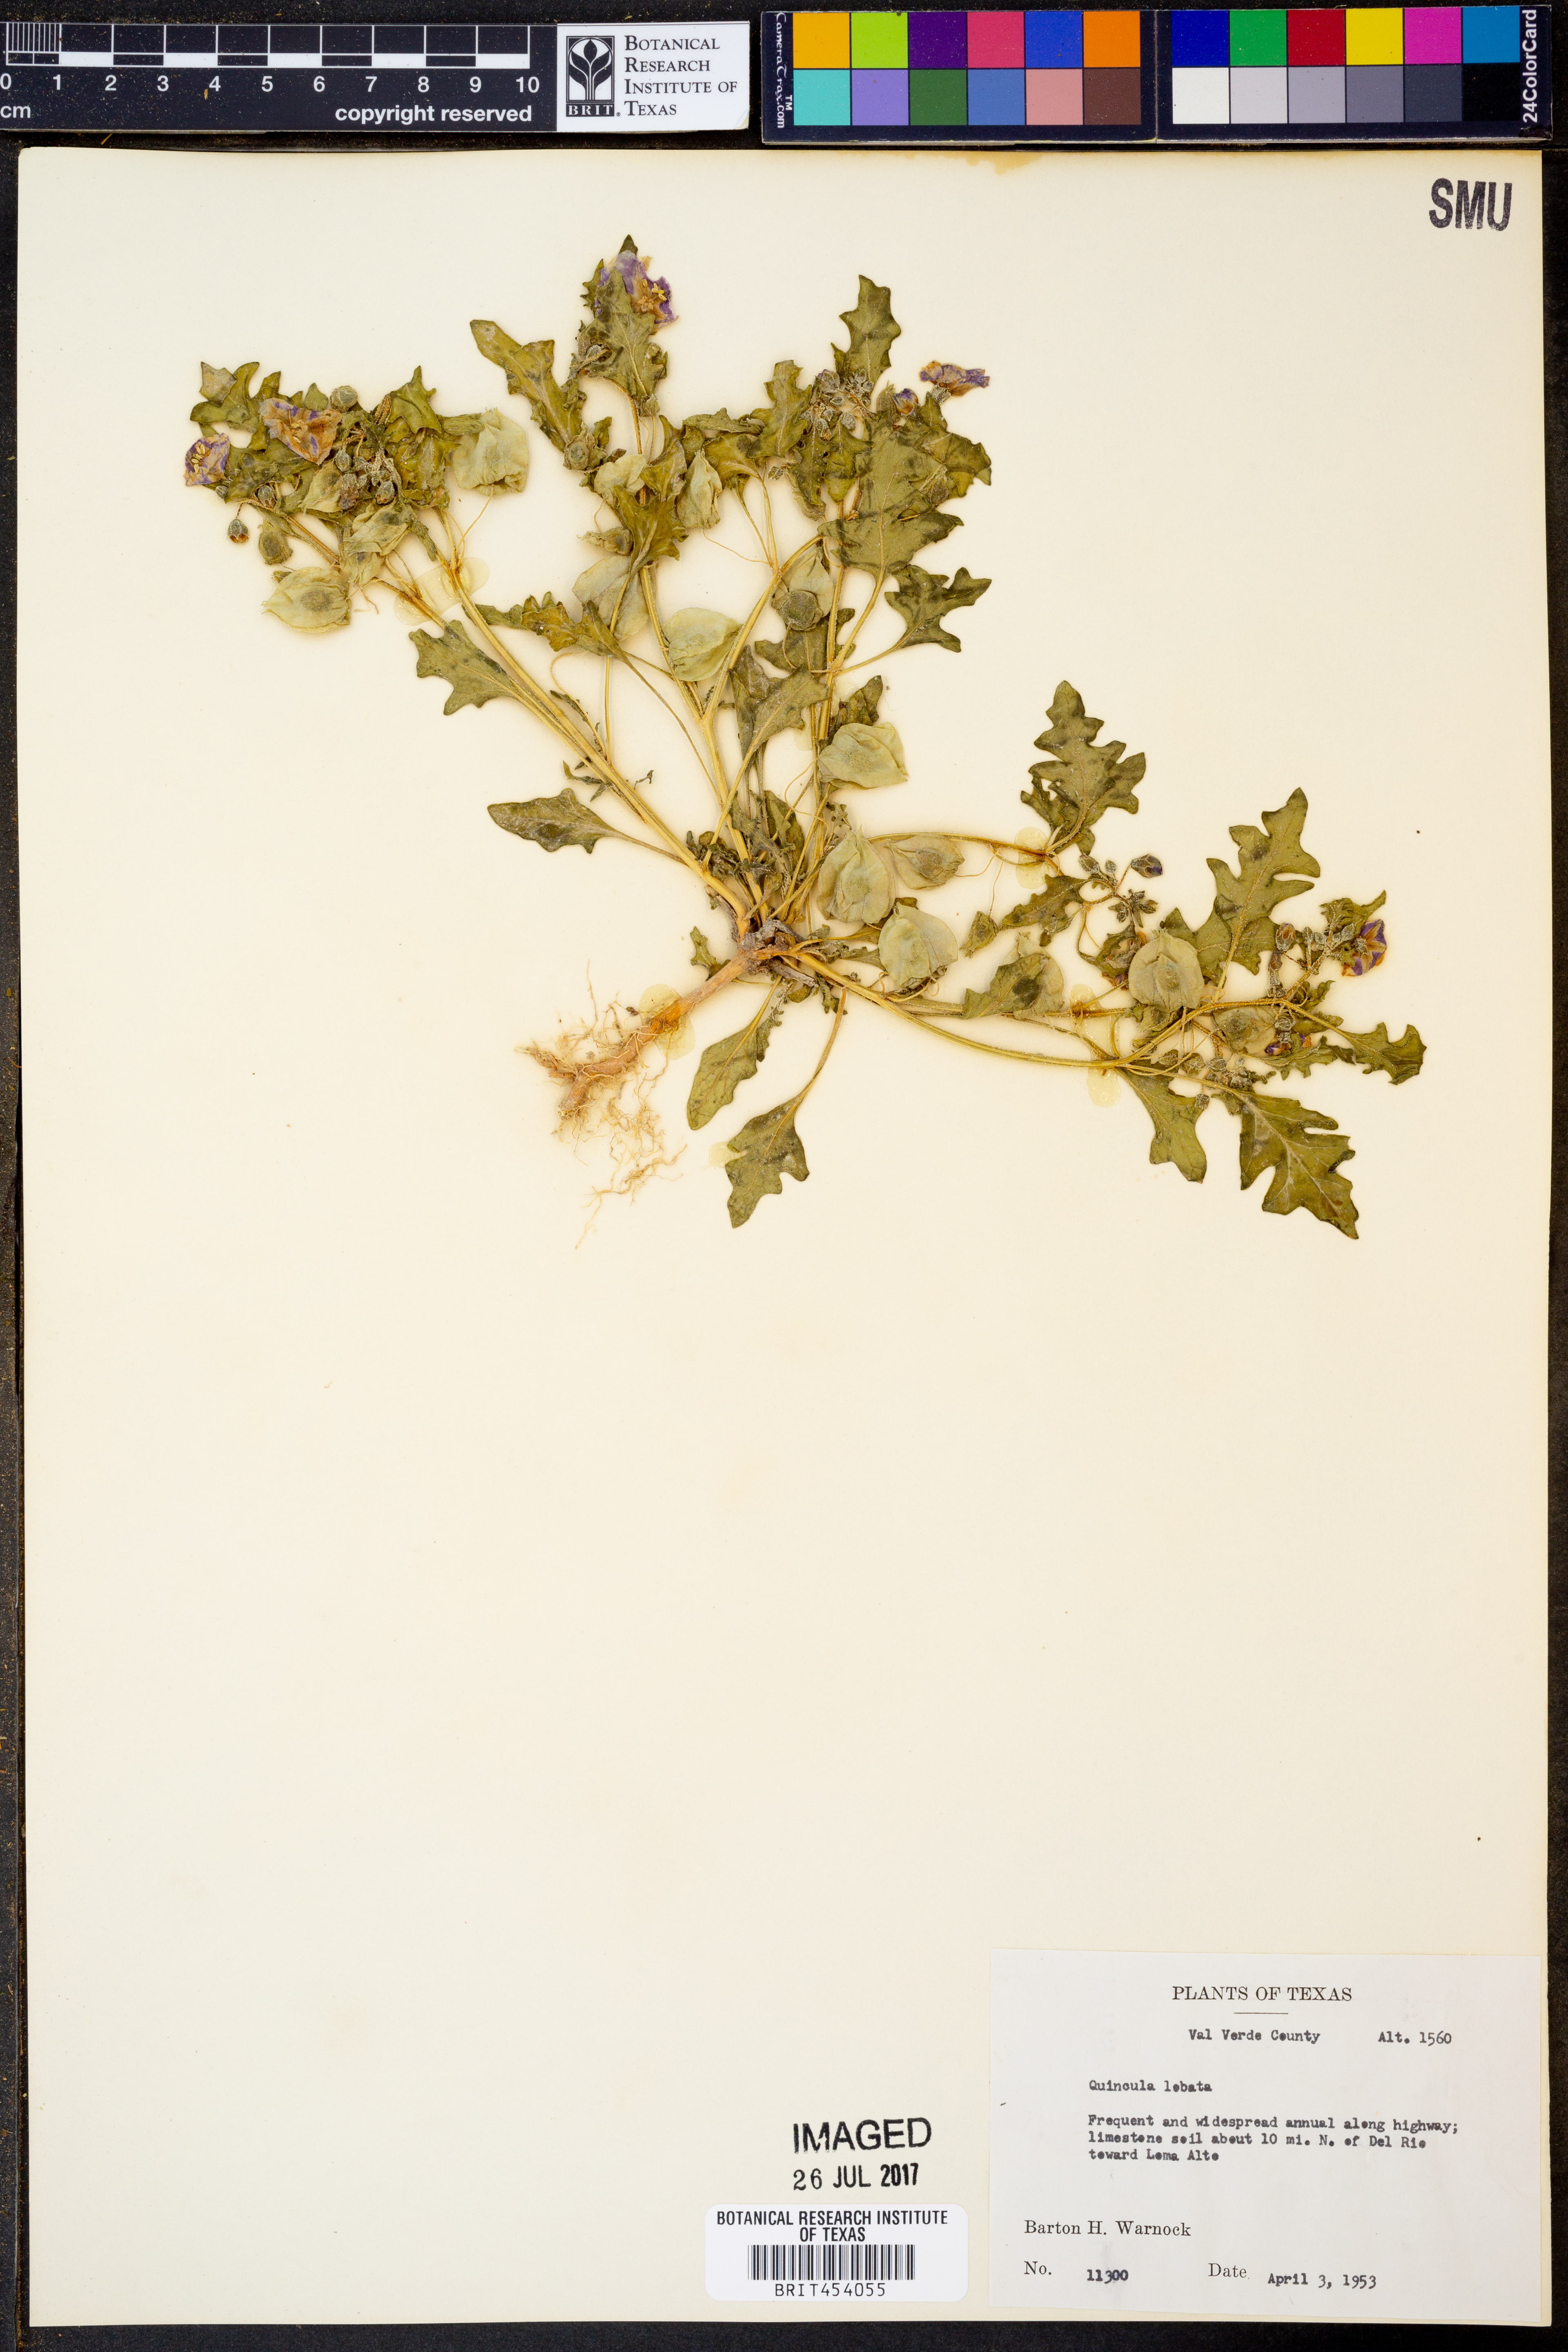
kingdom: Plantae
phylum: Tracheophyta
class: Magnoliopsida
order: Solanales
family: Solanaceae
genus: Quincula
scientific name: Quincula lobata
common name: Purple-ground-cherry
